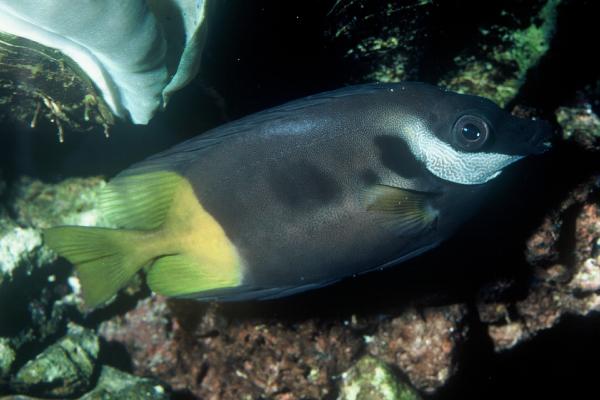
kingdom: Animalia
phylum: Chordata
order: Perciformes
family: Siganidae
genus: Siganus
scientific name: Siganus uspi
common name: Bicolored foxface
